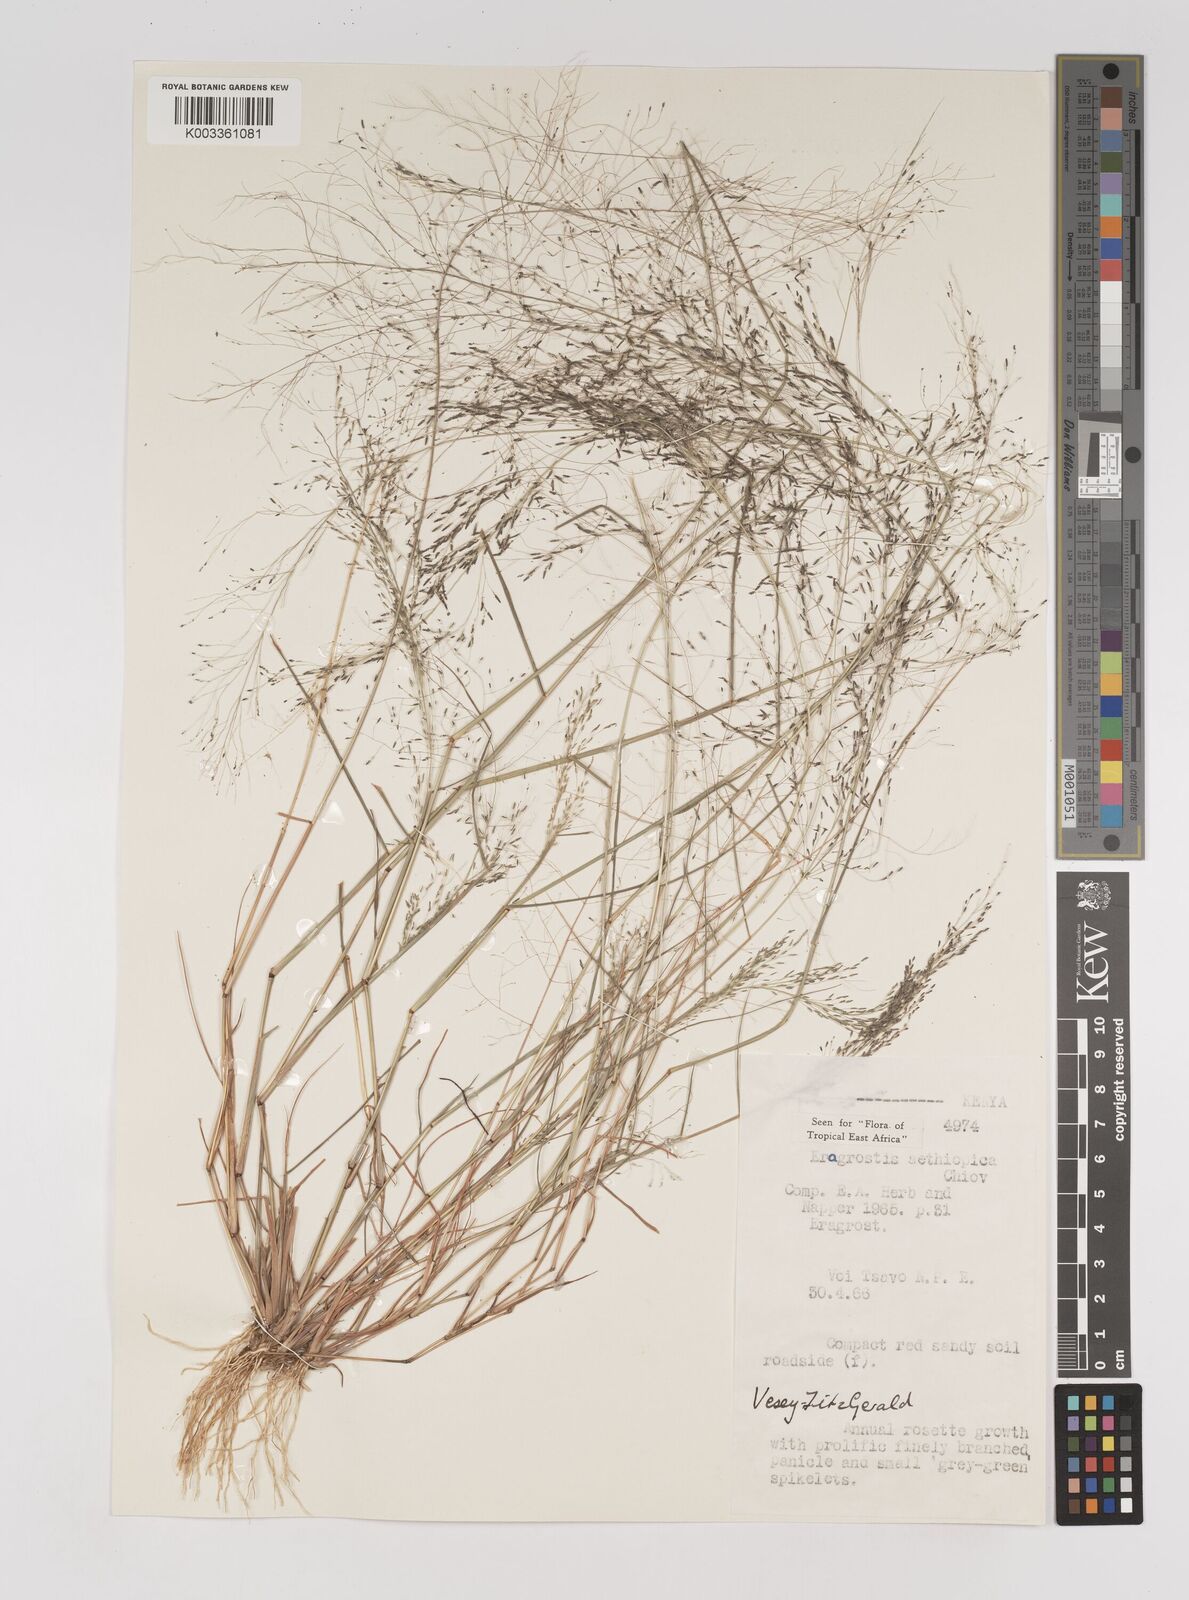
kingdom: Plantae
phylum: Tracheophyta
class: Liliopsida
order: Poales
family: Poaceae
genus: Eragrostis
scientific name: Eragrostis aethiopica
